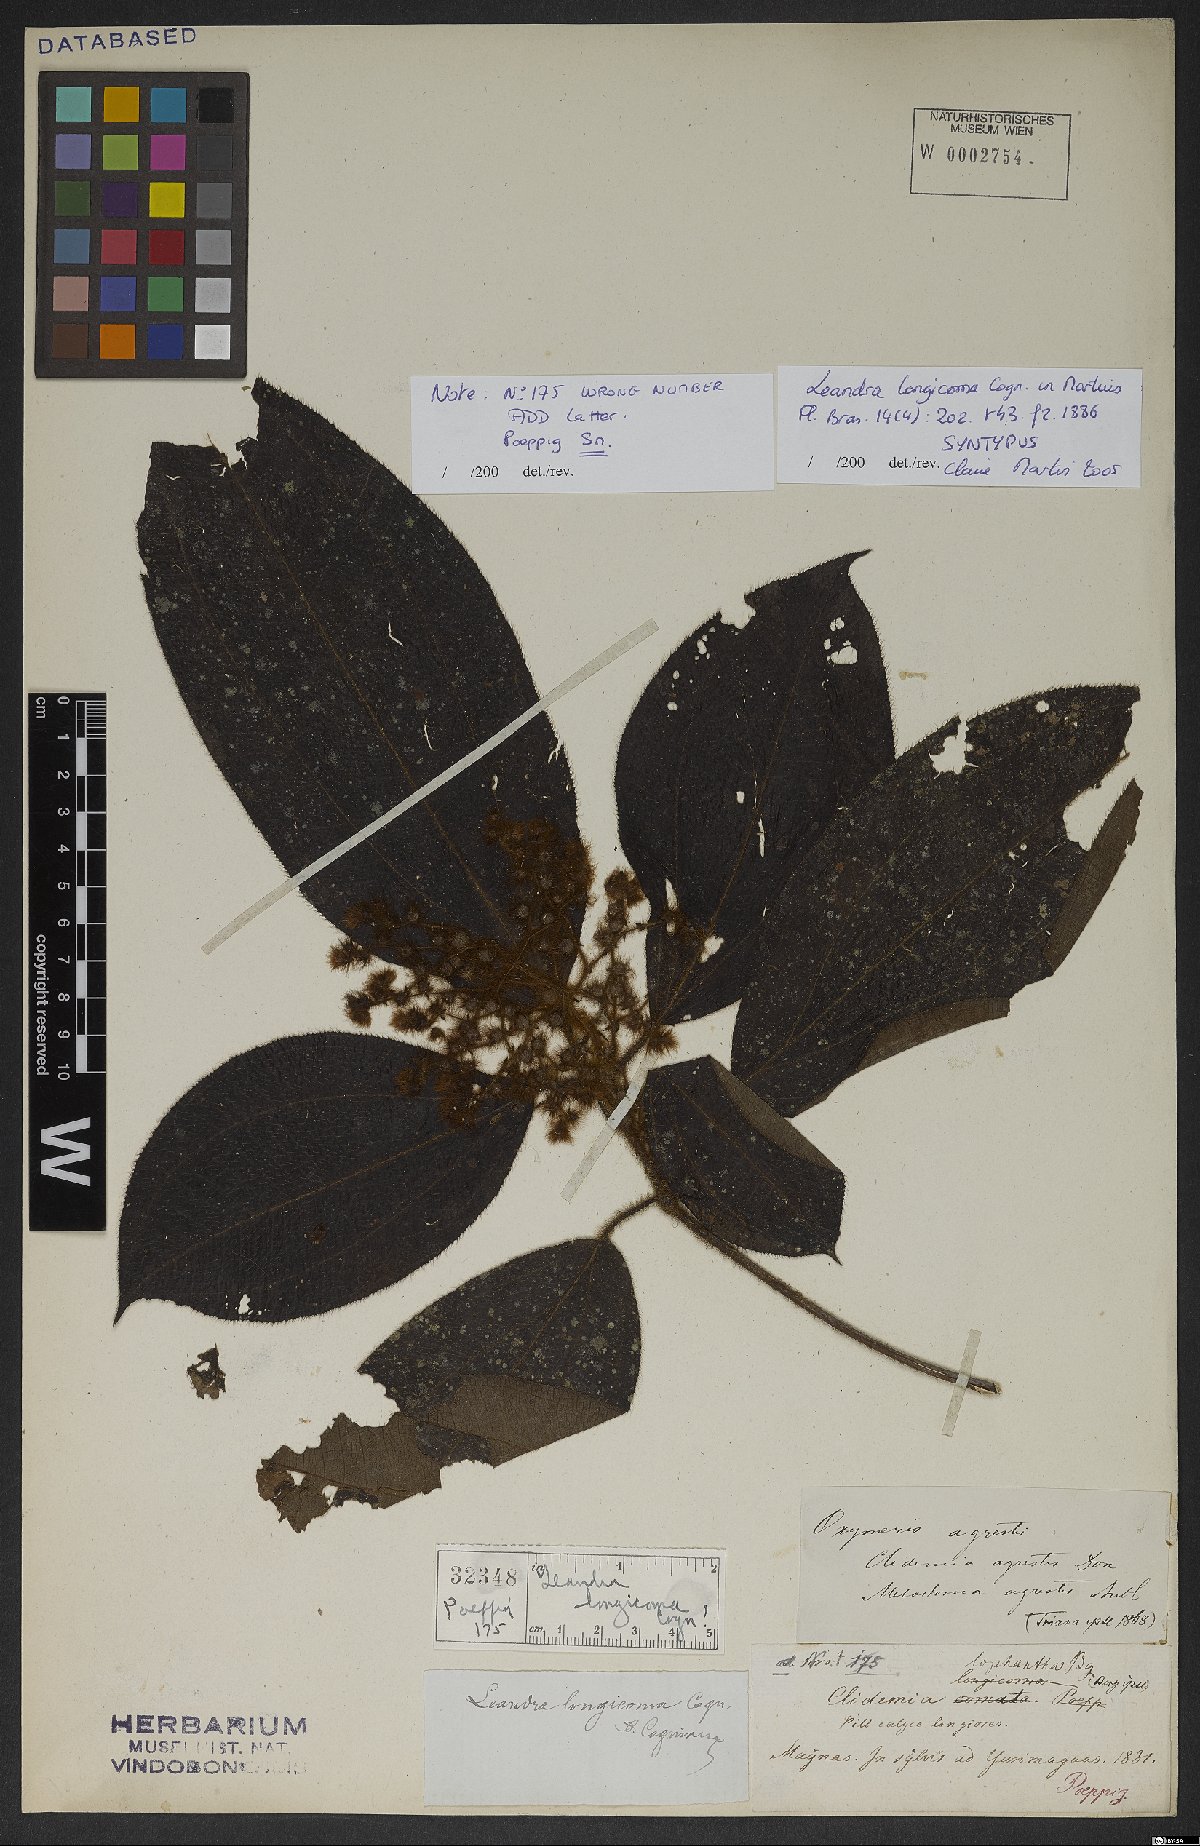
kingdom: Plantae
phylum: Tracheophyta
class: Magnoliopsida
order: Myrtales
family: Melastomataceae
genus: Miconia
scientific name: Miconia longicoma
